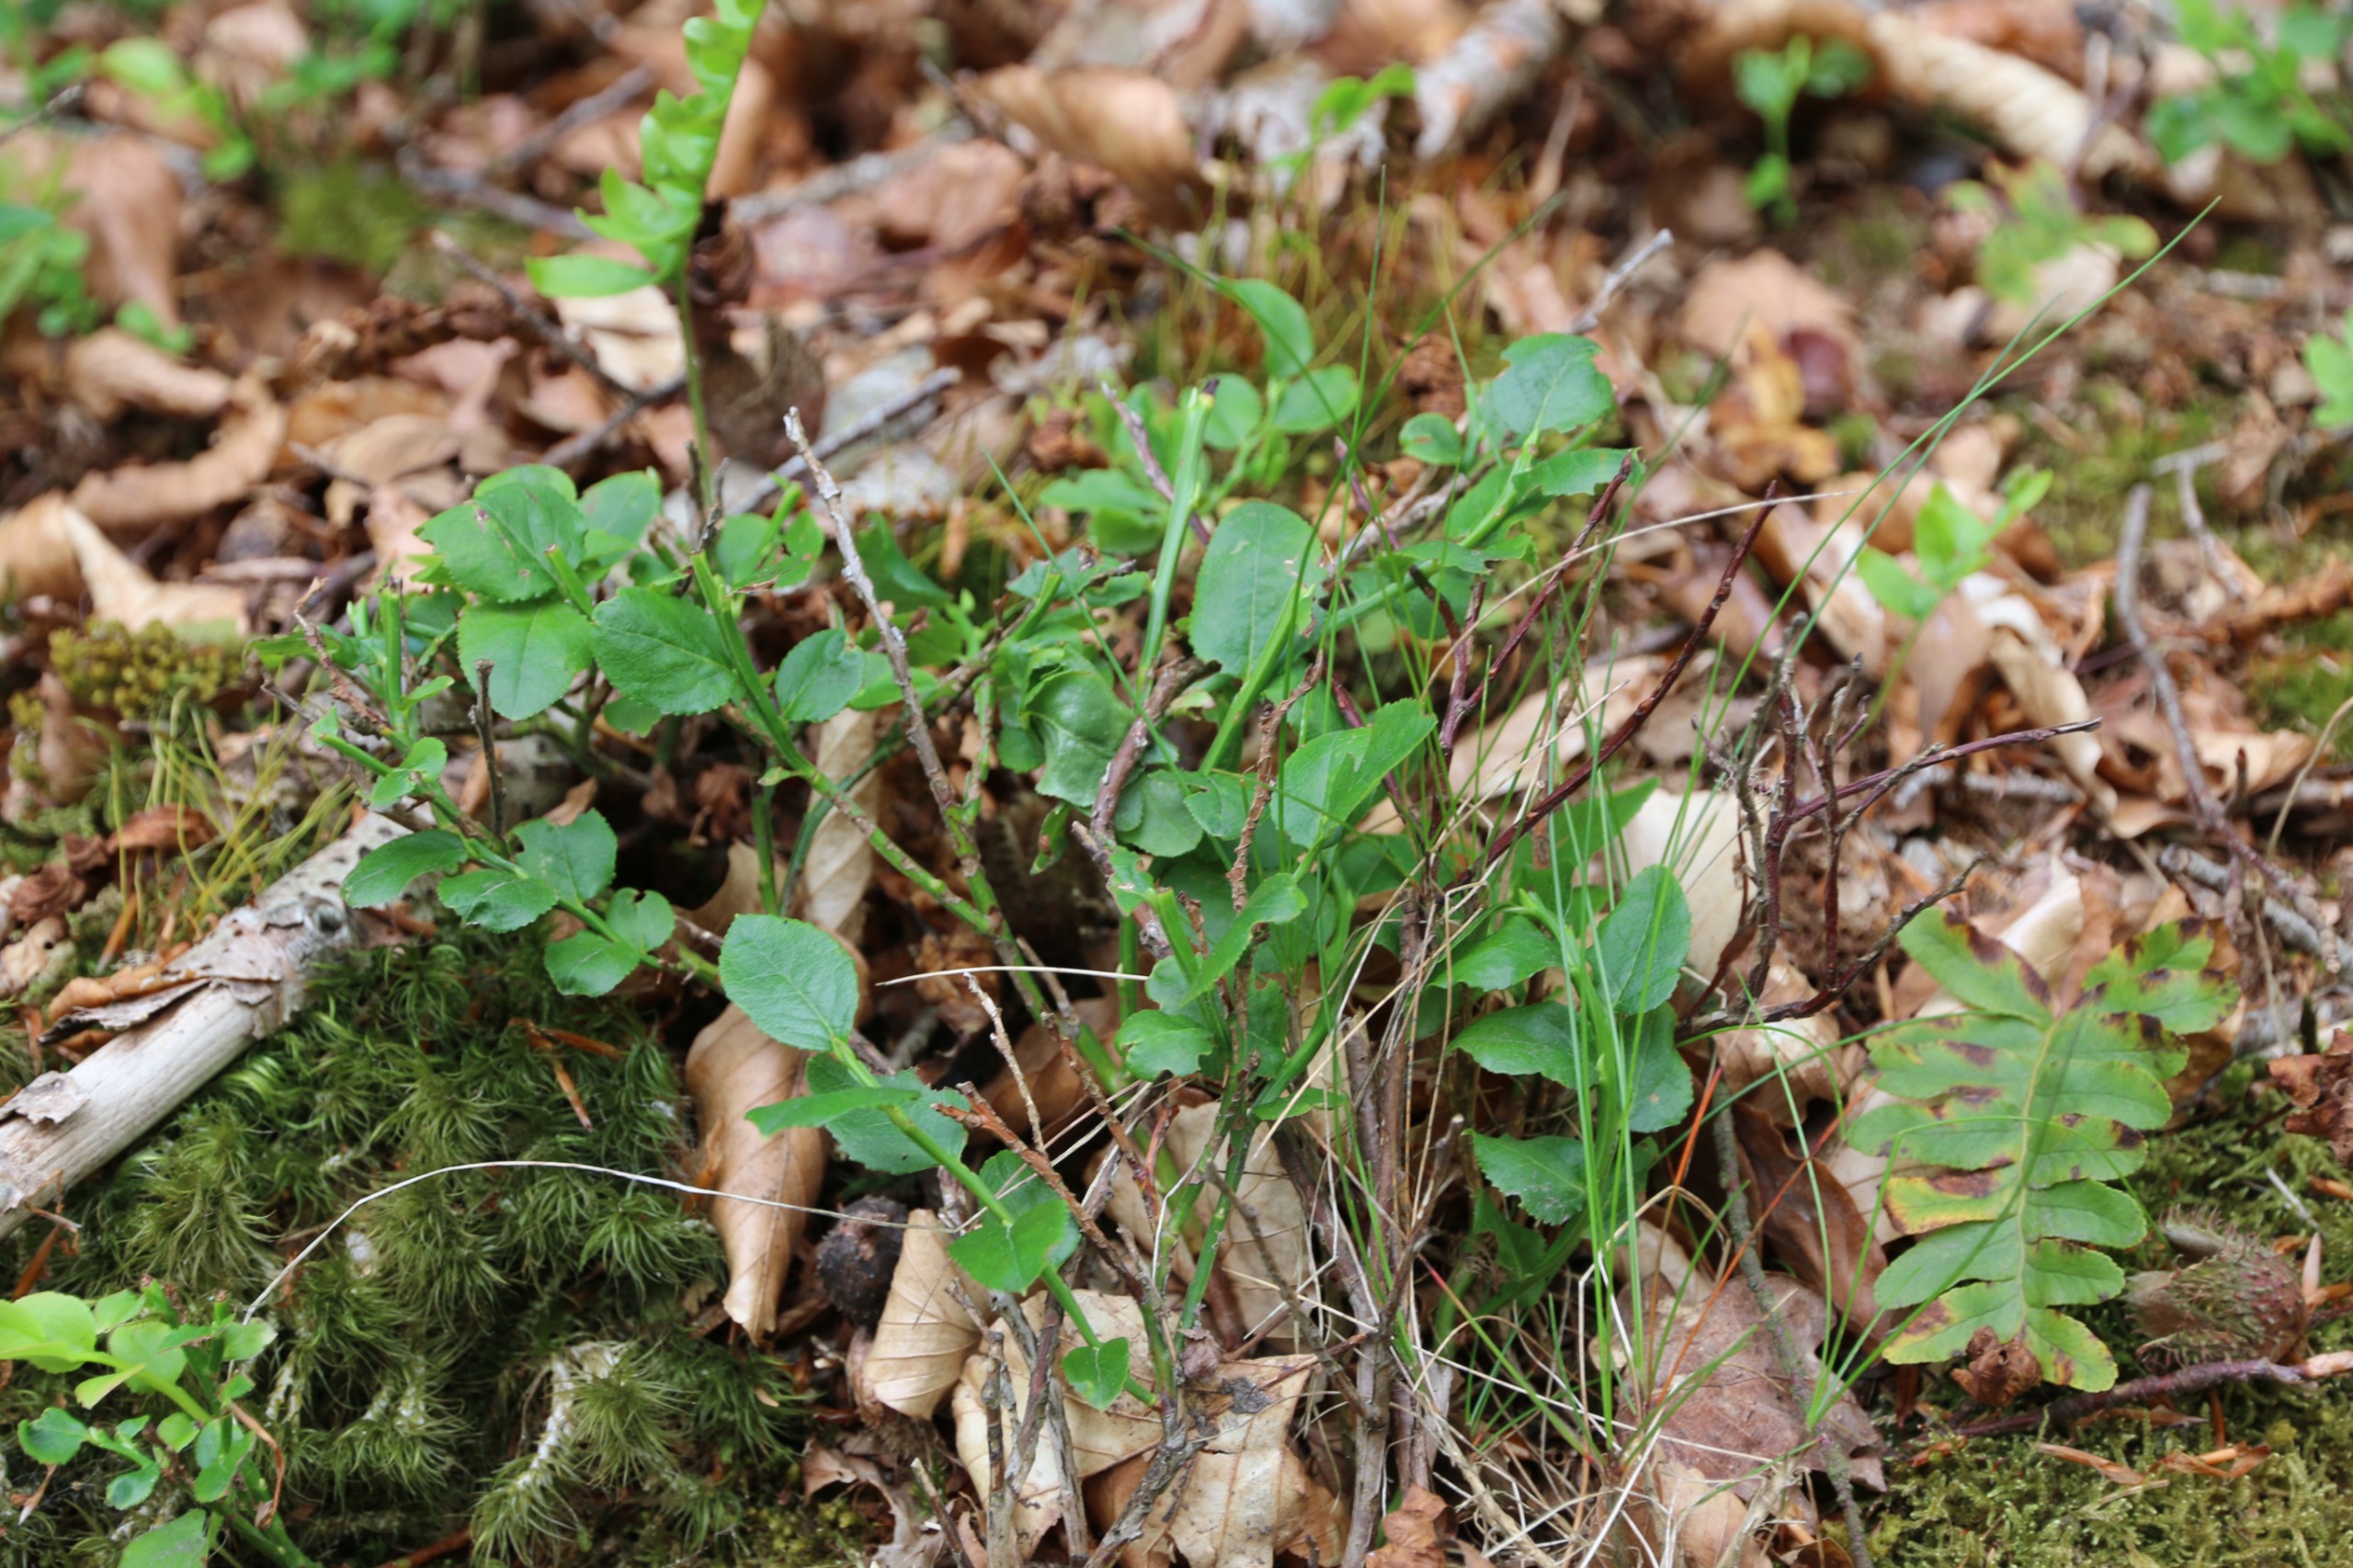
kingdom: Plantae
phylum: Tracheophyta
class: Magnoliopsida
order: Ericales
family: Ericaceae
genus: Vaccinium
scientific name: Vaccinium myrtillus
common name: Blåbær
